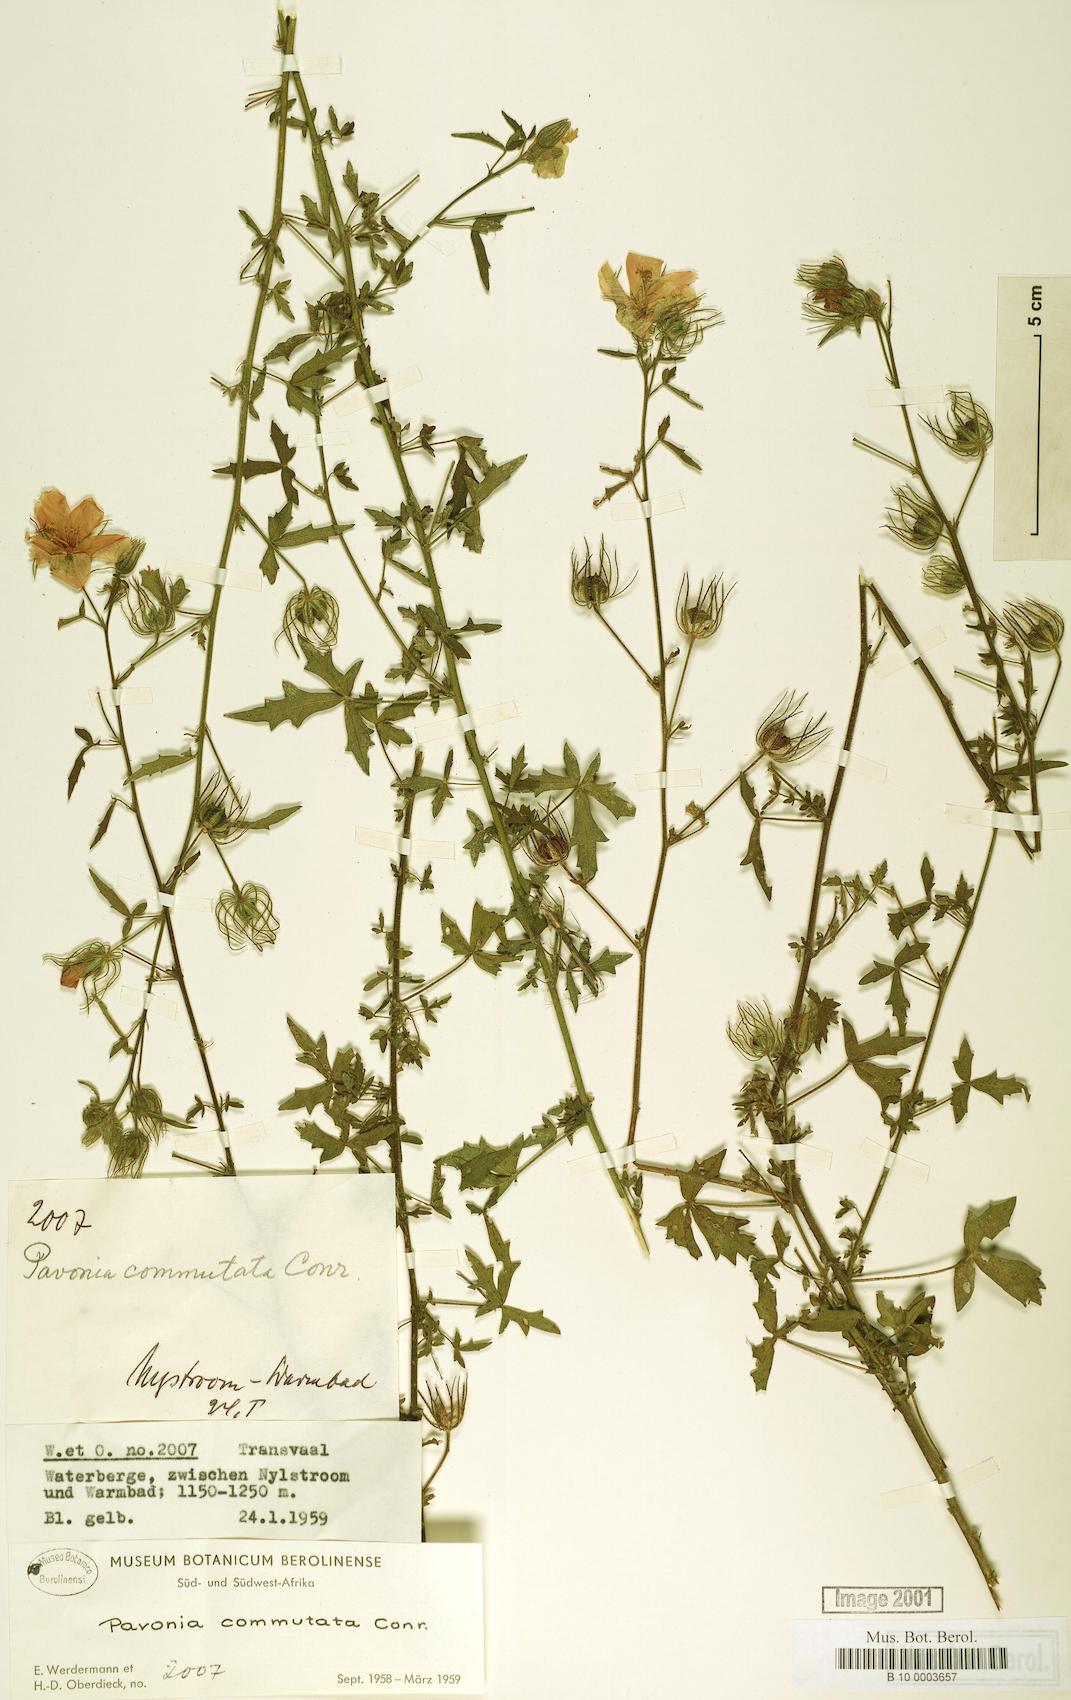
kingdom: Plantae
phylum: Tracheophyta
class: Magnoliopsida
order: Malvales
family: Malvaceae
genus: Pavonia
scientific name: Pavonia commutata
